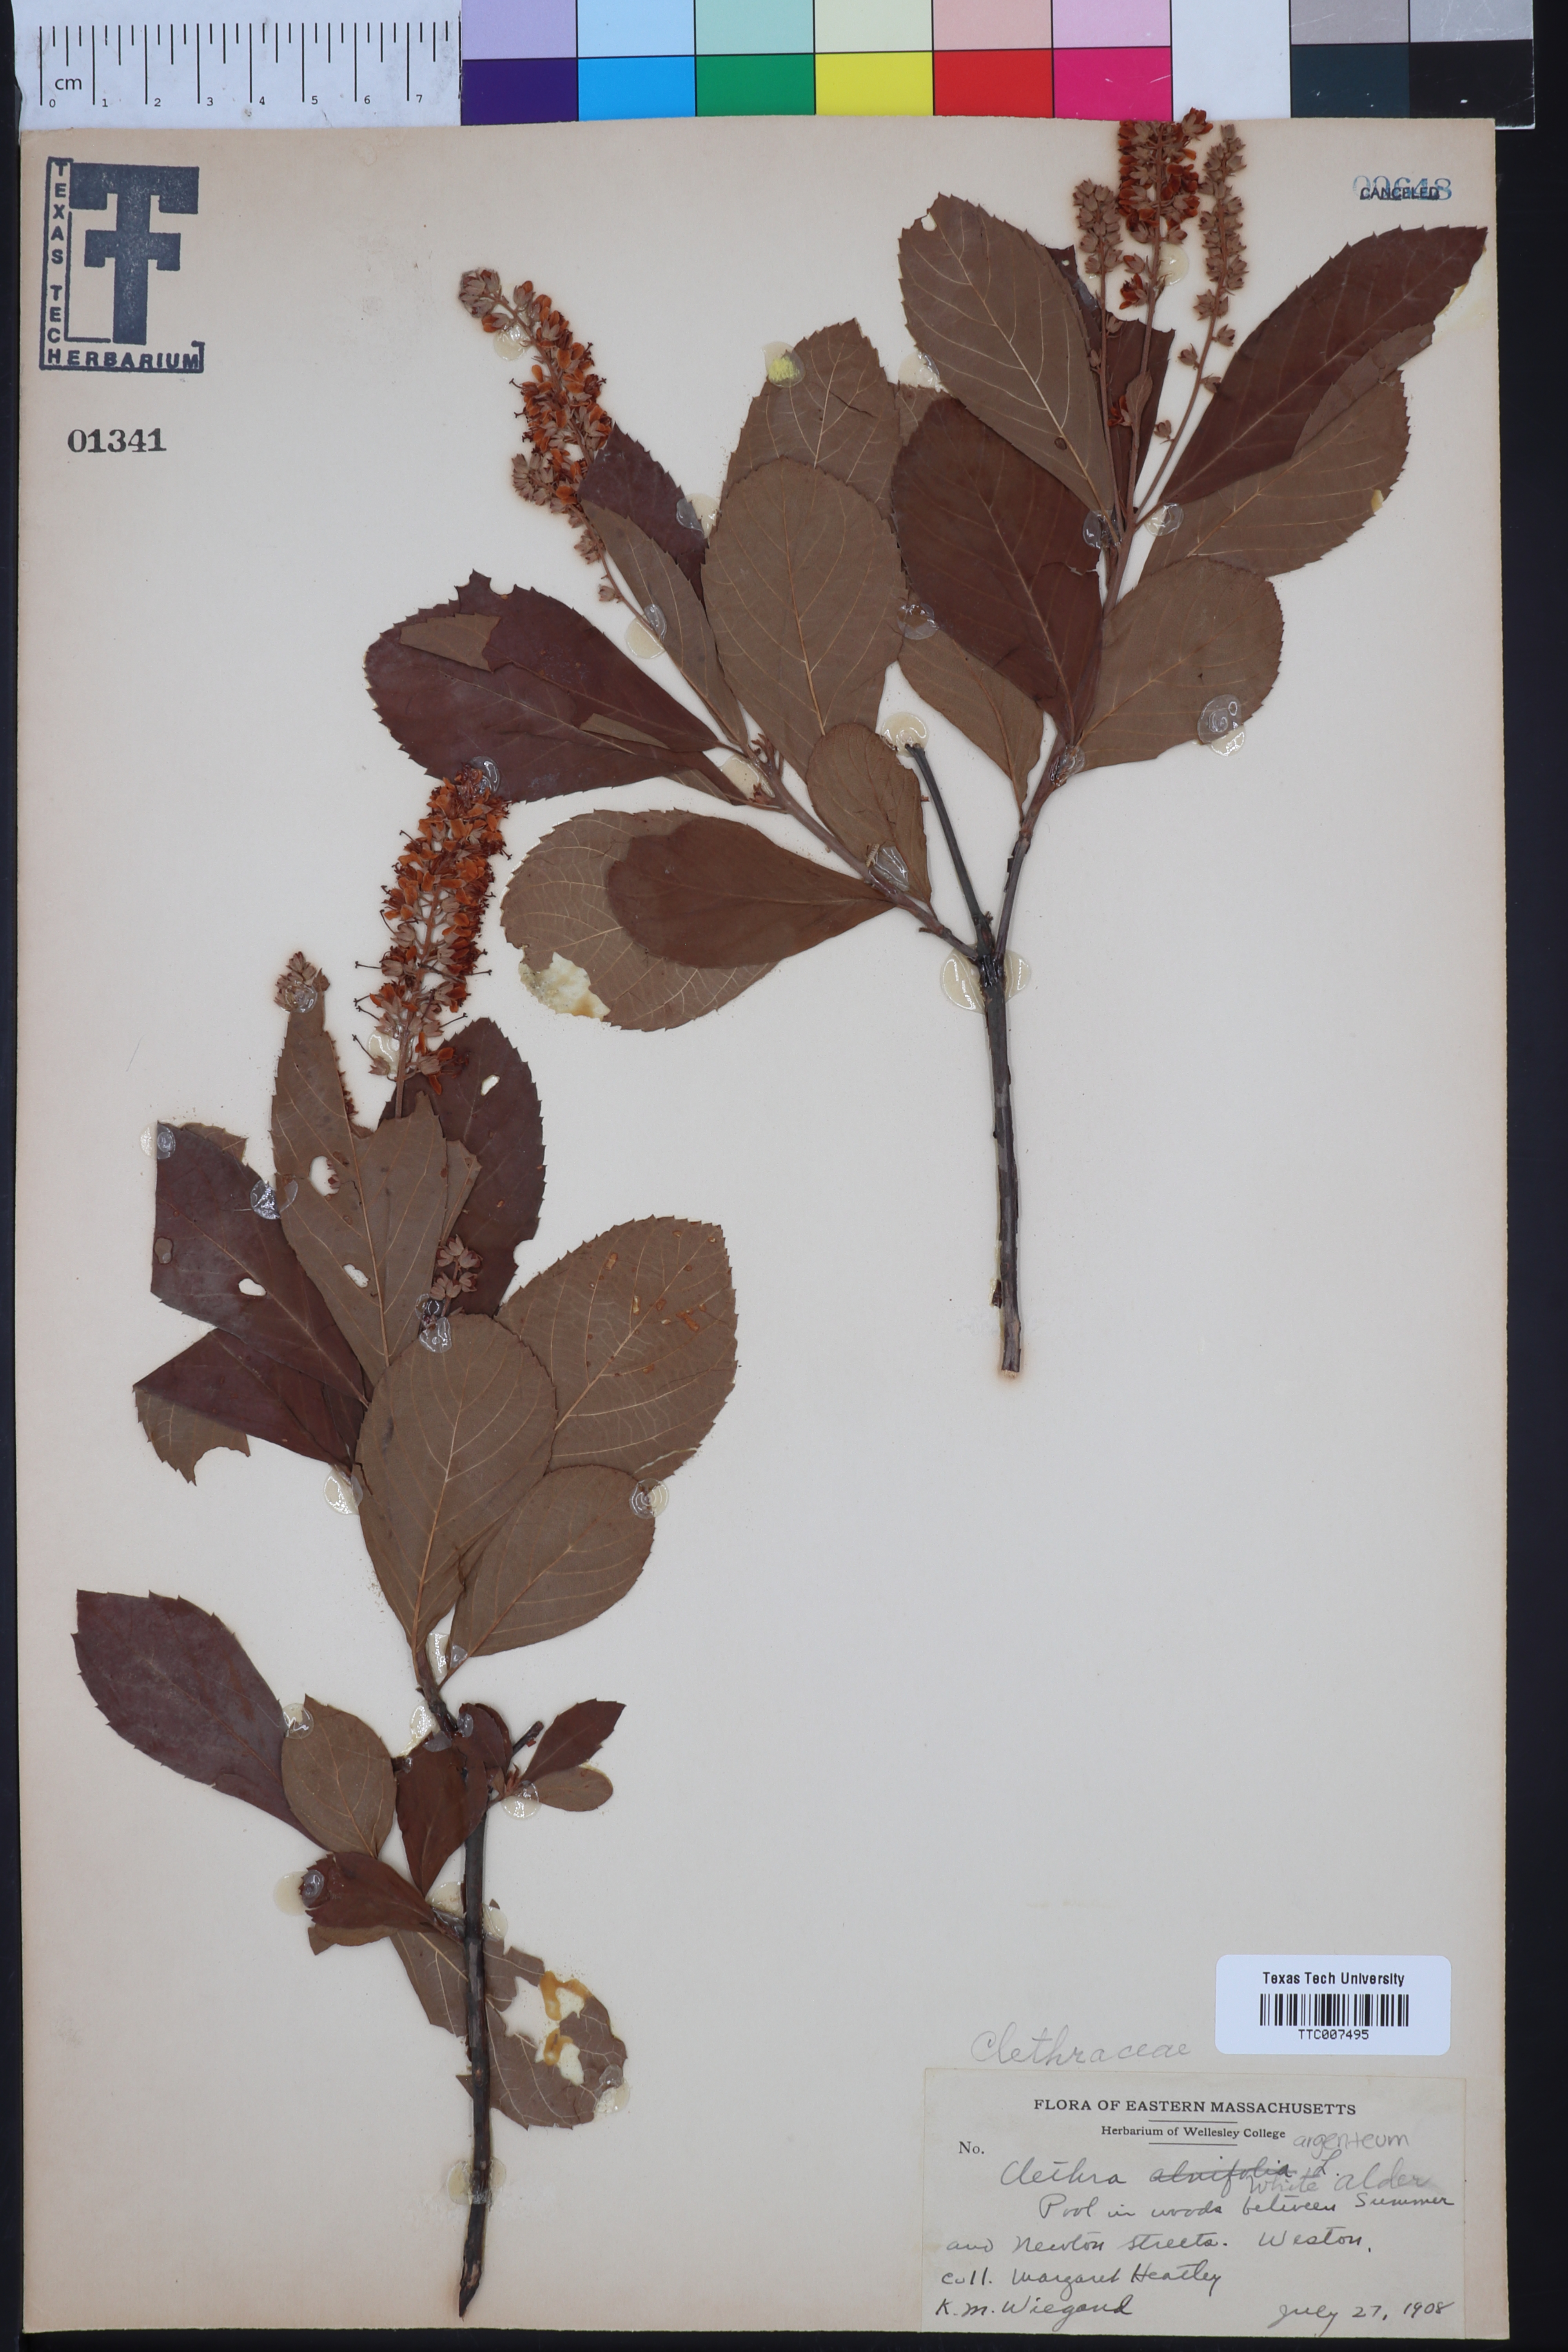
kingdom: Plantae
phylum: Tracheophyta
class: Magnoliopsida
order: Ericales
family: Clethraceae
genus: Clethra
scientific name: Clethra alnifolia
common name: Sweet pepperbush
